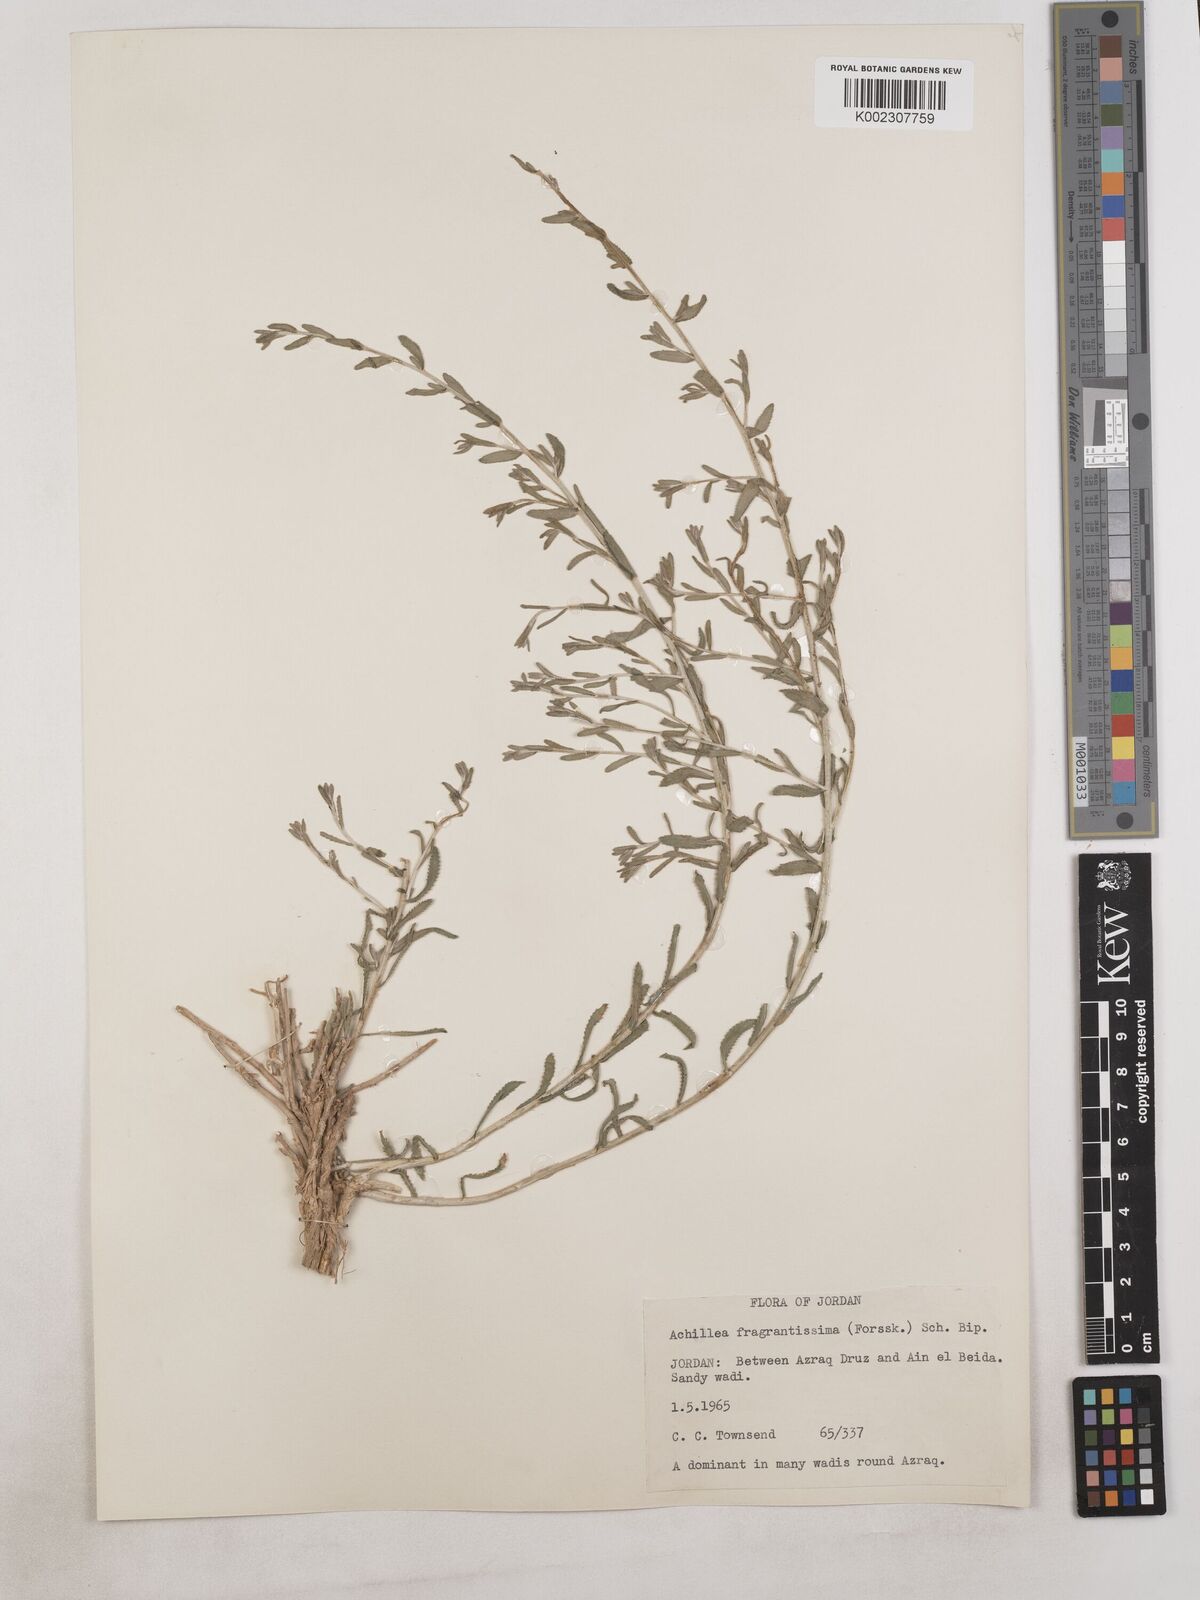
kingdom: Plantae
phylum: Tracheophyta
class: Magnoliopsida
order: Asterales
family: Asteraceae
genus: Achillea
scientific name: Achillea fragrantissima
